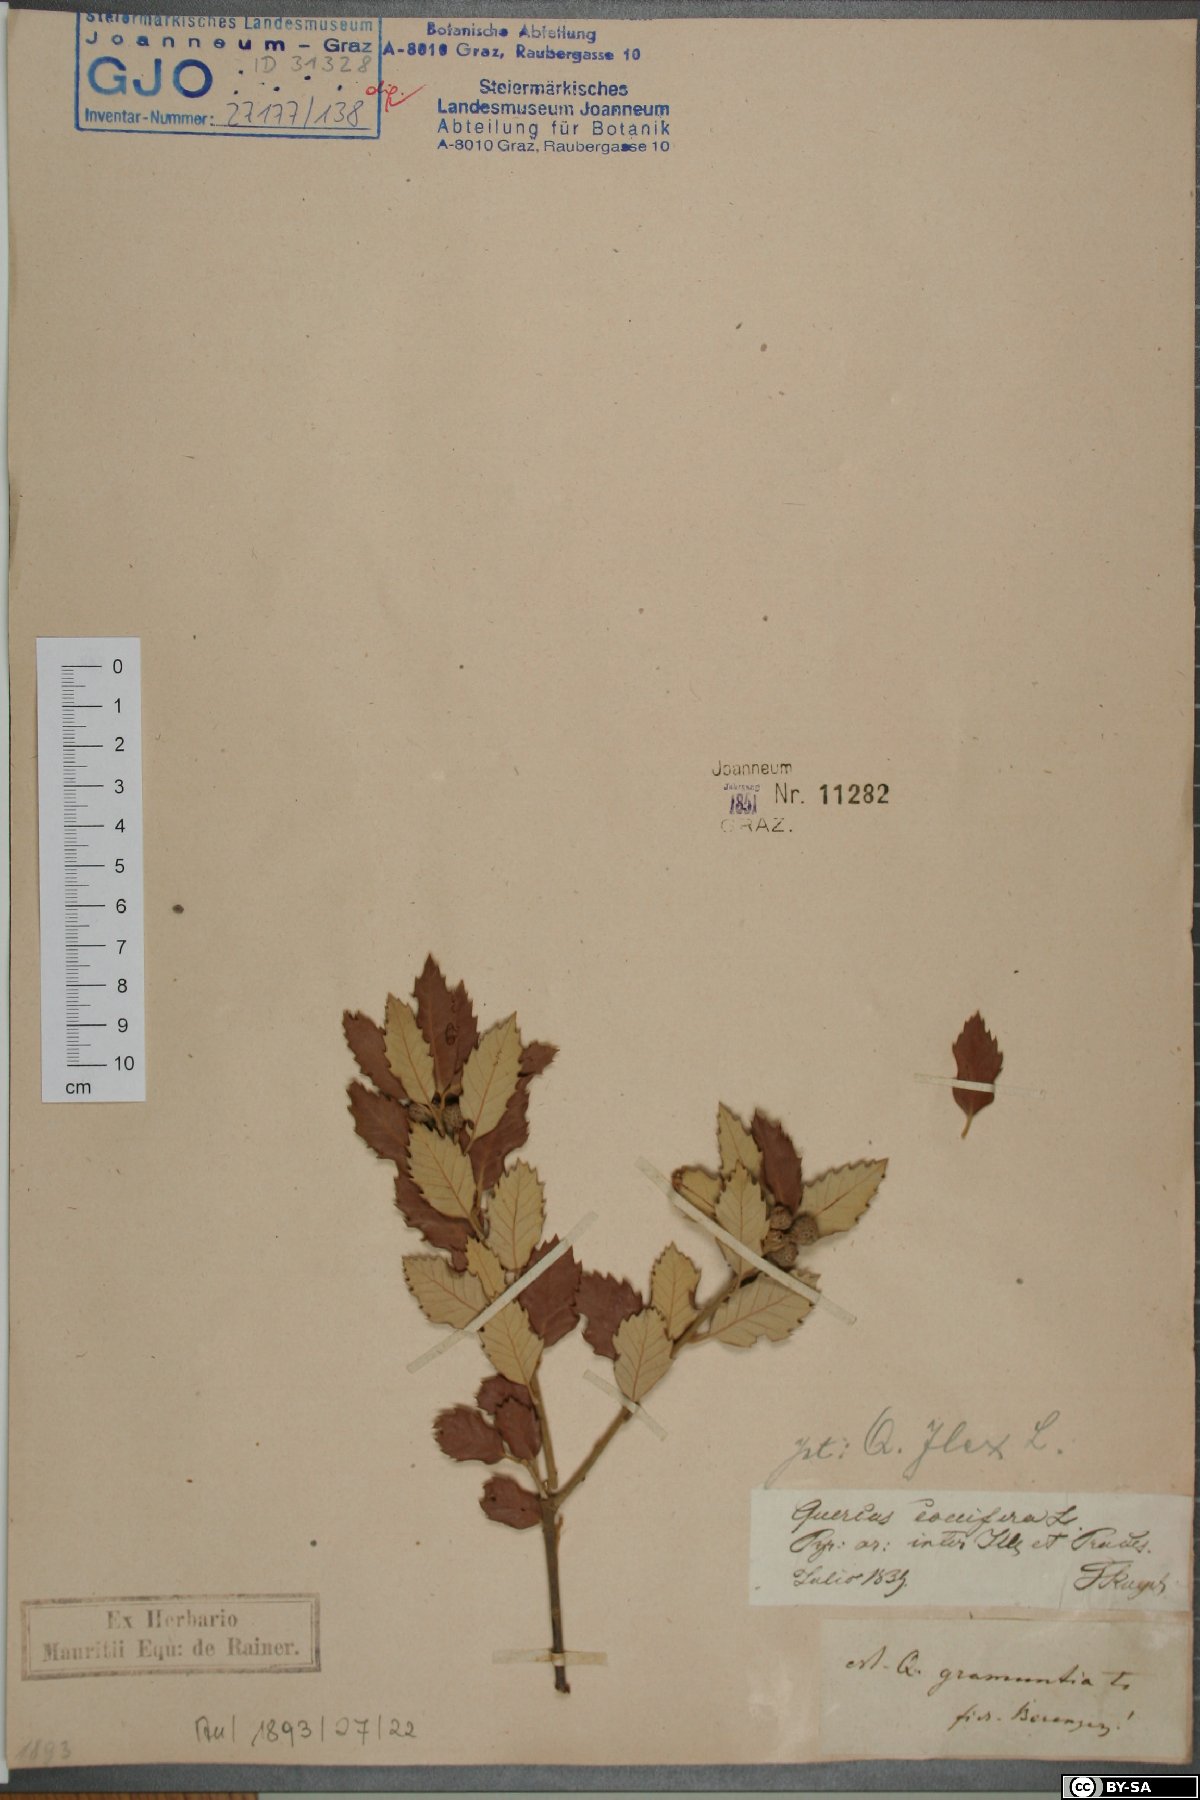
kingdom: Plantae
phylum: Tracheophyta
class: Magnoliopsida
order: Fagales
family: Fagaceae
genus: Quercus
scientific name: Quercus ilex
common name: Evergreen oak
